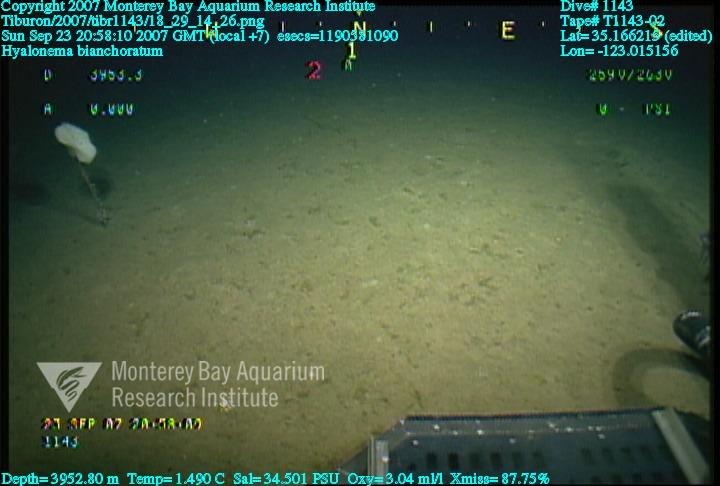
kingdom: Animalia
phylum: Porifera
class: Hexactinellida
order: Amphidiscosida
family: Hyalonematidae
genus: Hyalonema
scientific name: Hyalonema bianchoratum
